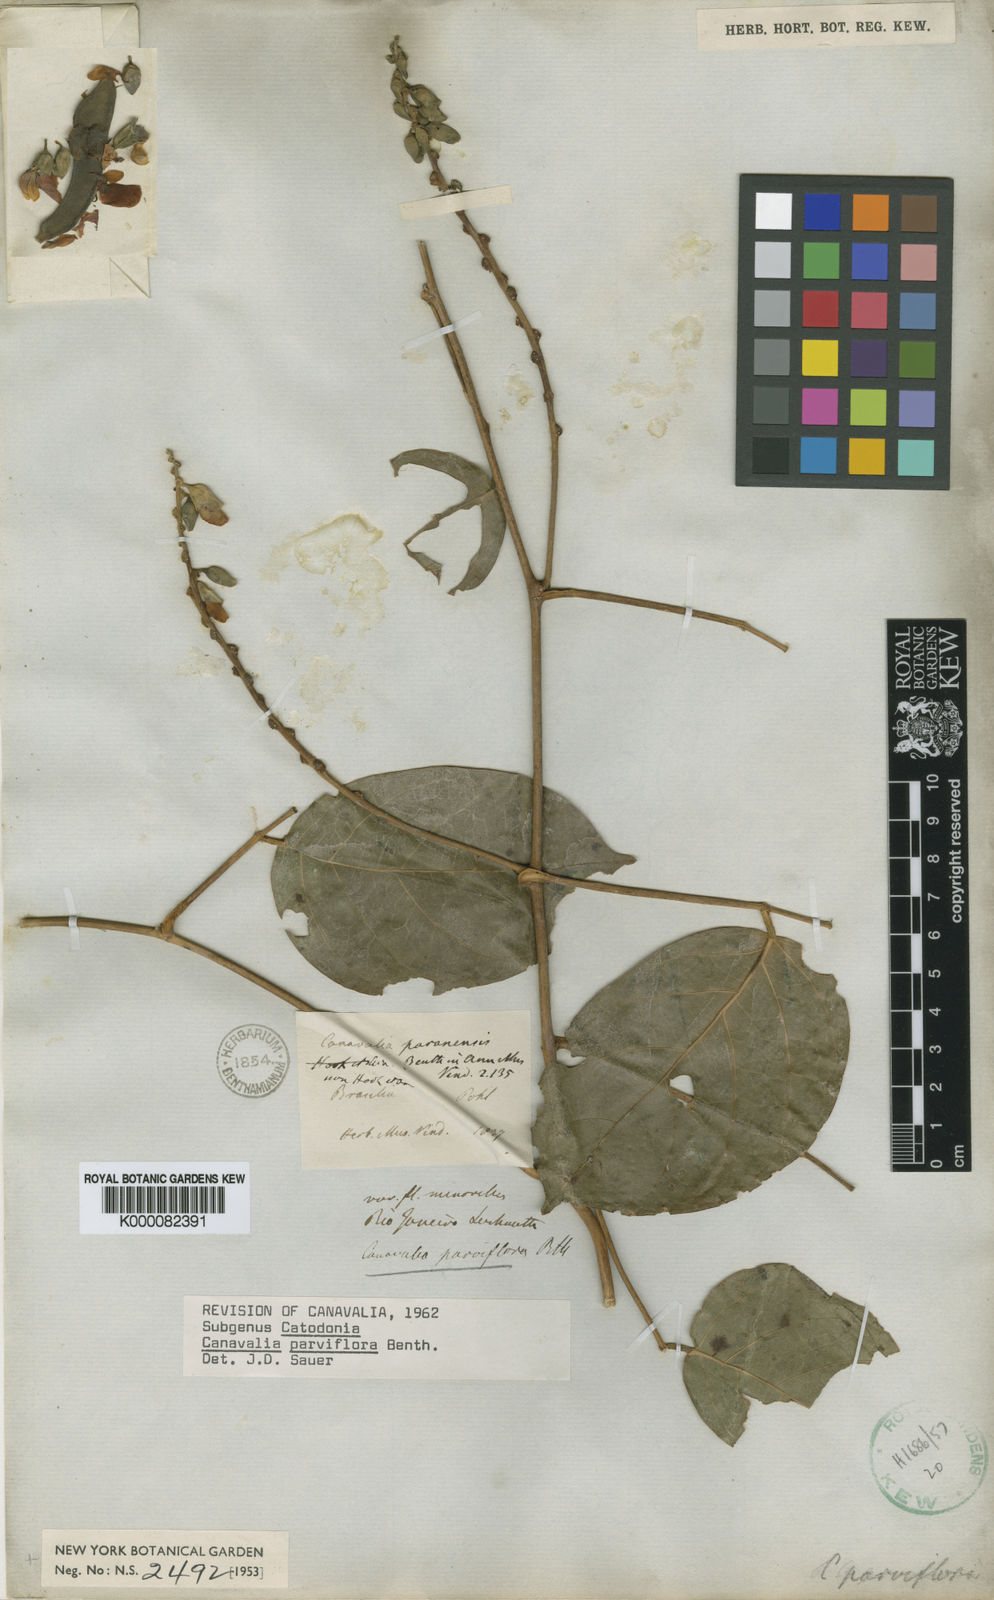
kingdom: Plantae
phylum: Tracheophyta
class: Magnoliopsida
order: Fabales
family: Fabaceae
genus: Canavalia
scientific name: Canavalia parviflora
